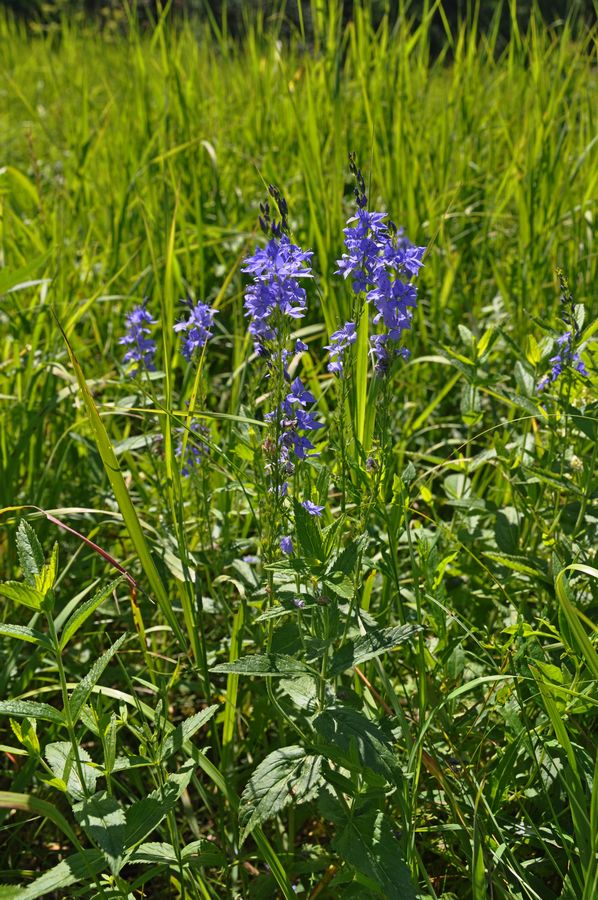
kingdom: Plantae
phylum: Tracheophyta
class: Magnoliopsida
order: Lamiales
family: Plantaginaceae
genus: Veronica
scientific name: Veronica teucrium
